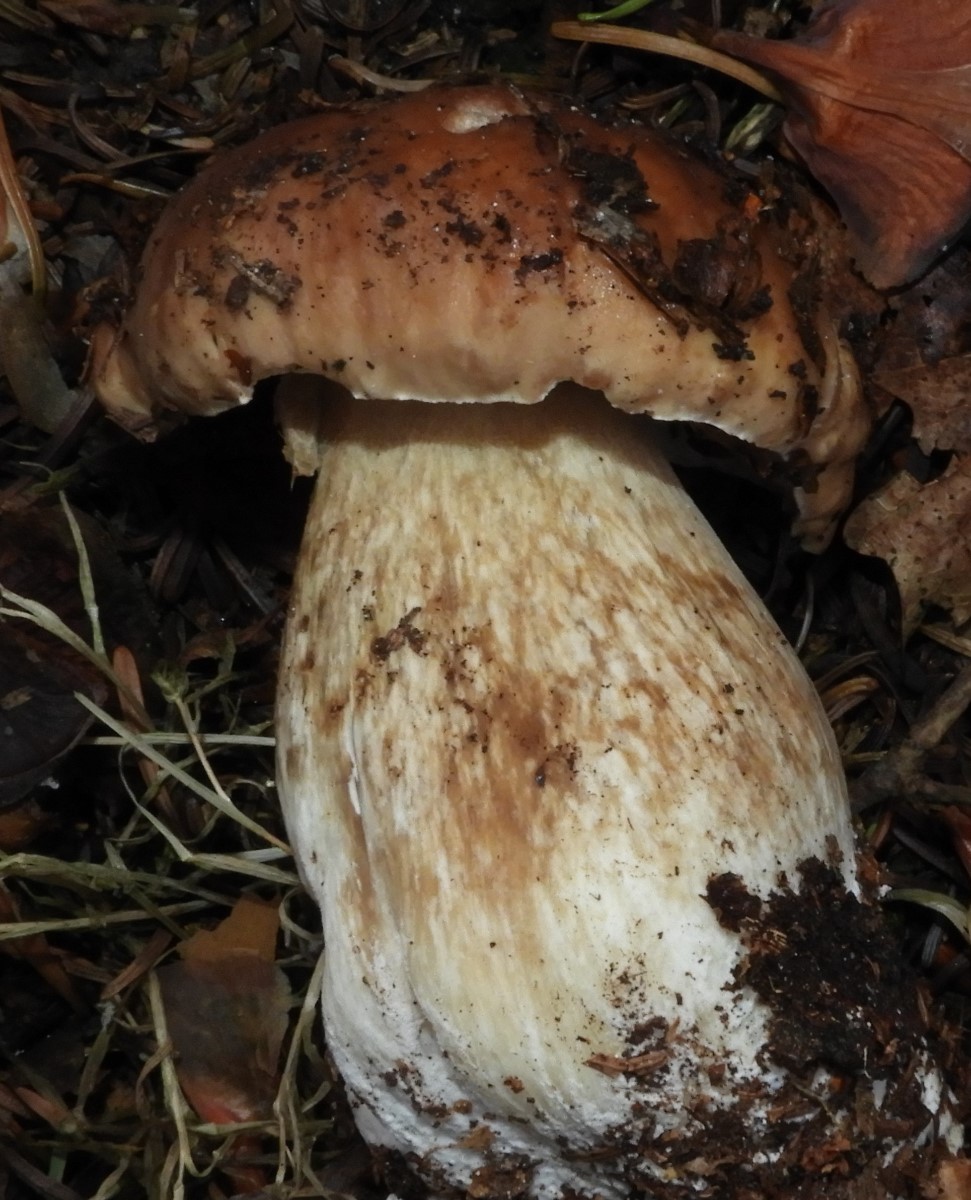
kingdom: Fungi
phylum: Basidiomycota
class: Agaricomycetes
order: Boletales
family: Boletaceae
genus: Boletus
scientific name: Boletus edulis
